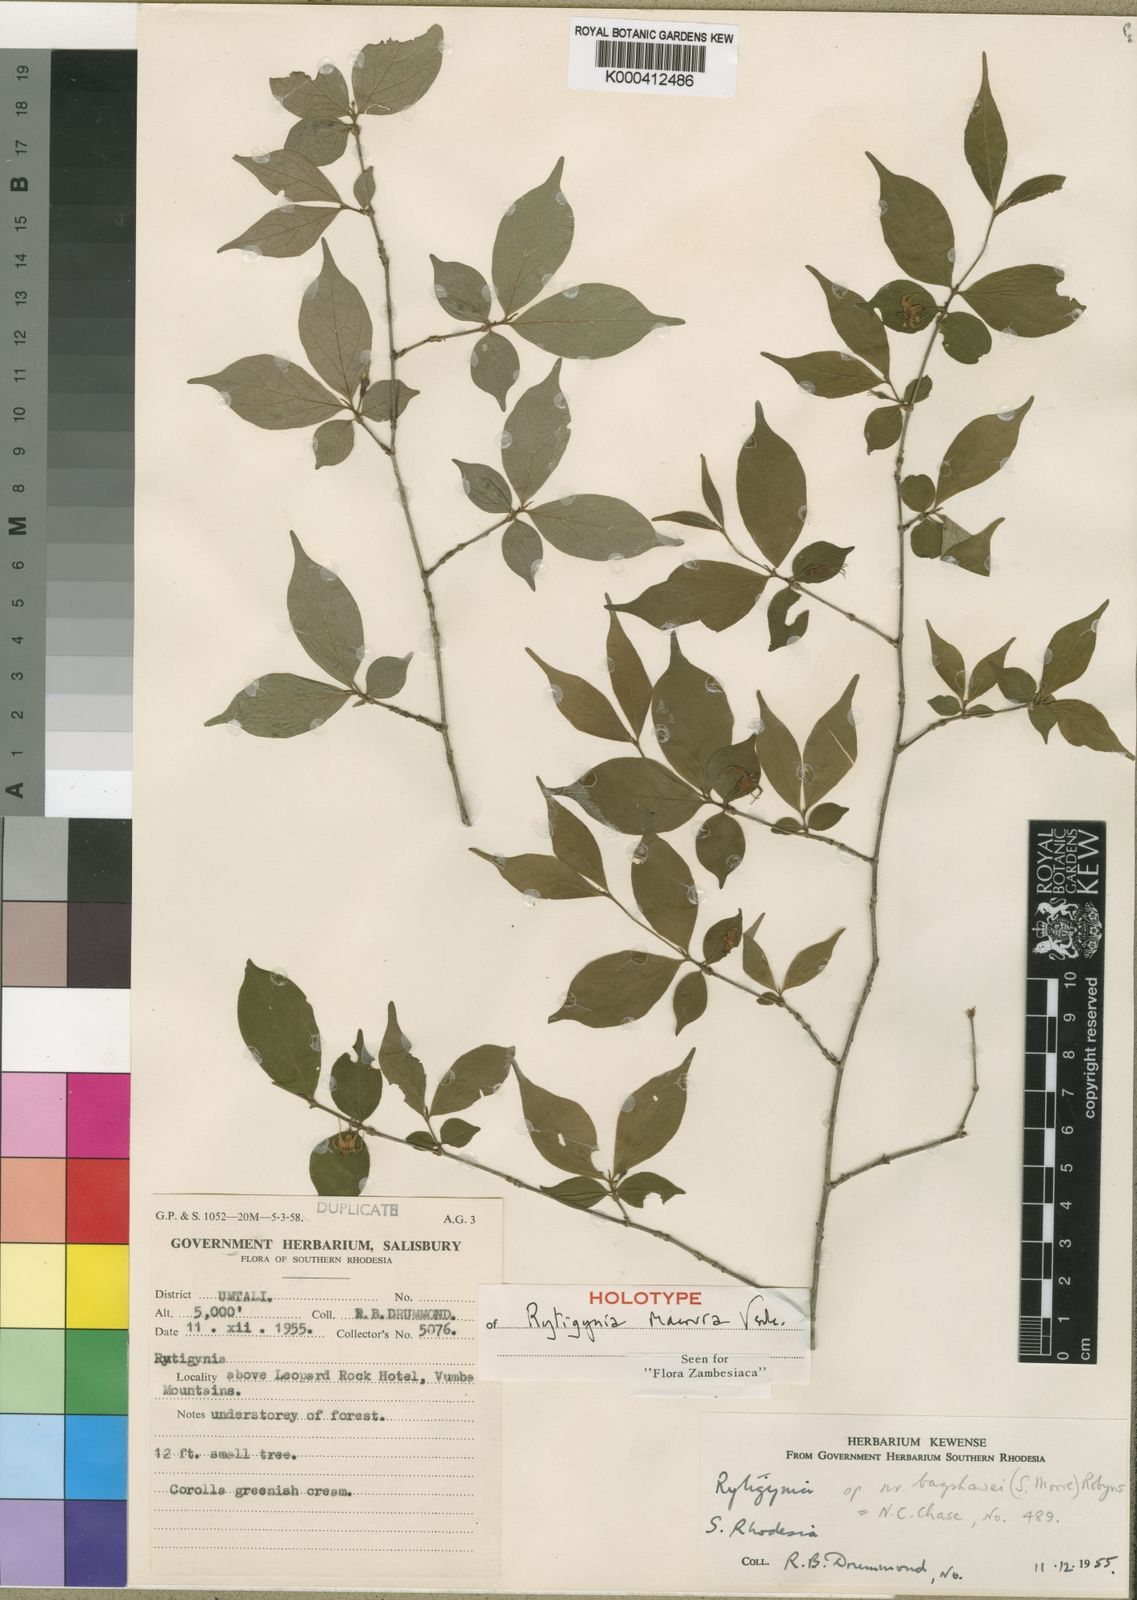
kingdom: Plantae
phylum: Tracheophyta
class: Magnoliopsida
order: Gentianales
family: Rubiaceae
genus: Rytigynia
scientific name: Rytigynia macrura
